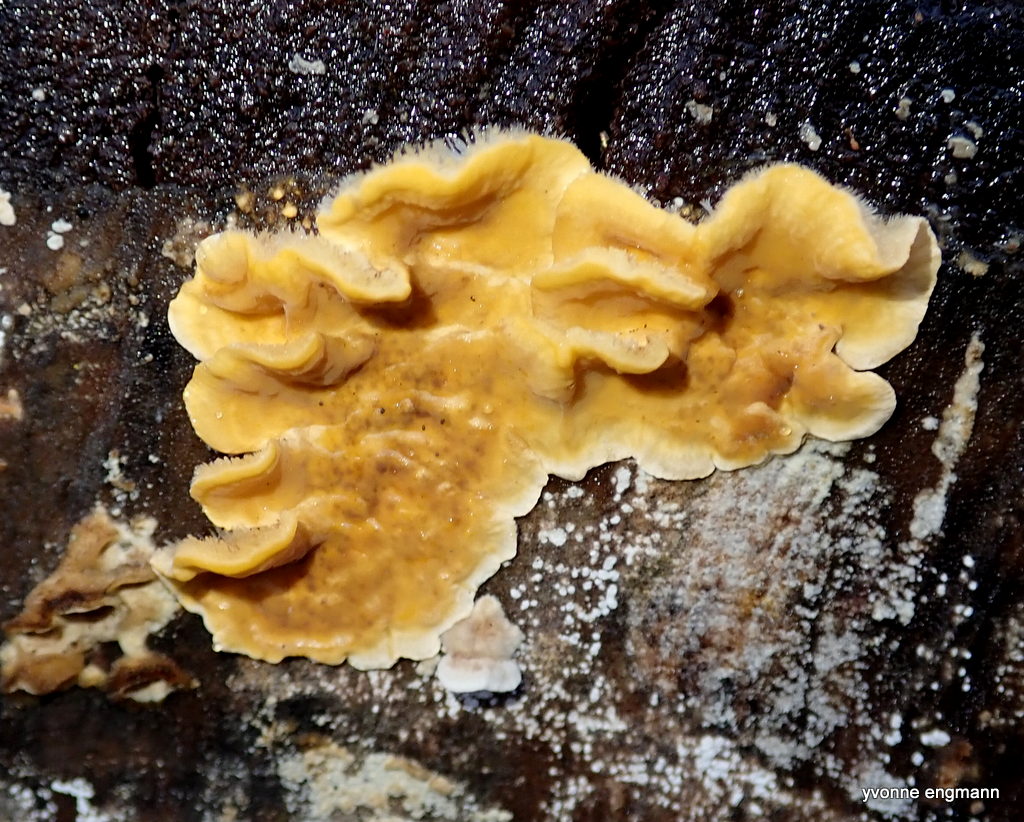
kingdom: Fungi
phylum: Basidiomycota
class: Agaricomycetes
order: Russulales
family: Stereaceae
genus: Stereum
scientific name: Stereum hirsutum
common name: håret lædersvamp
